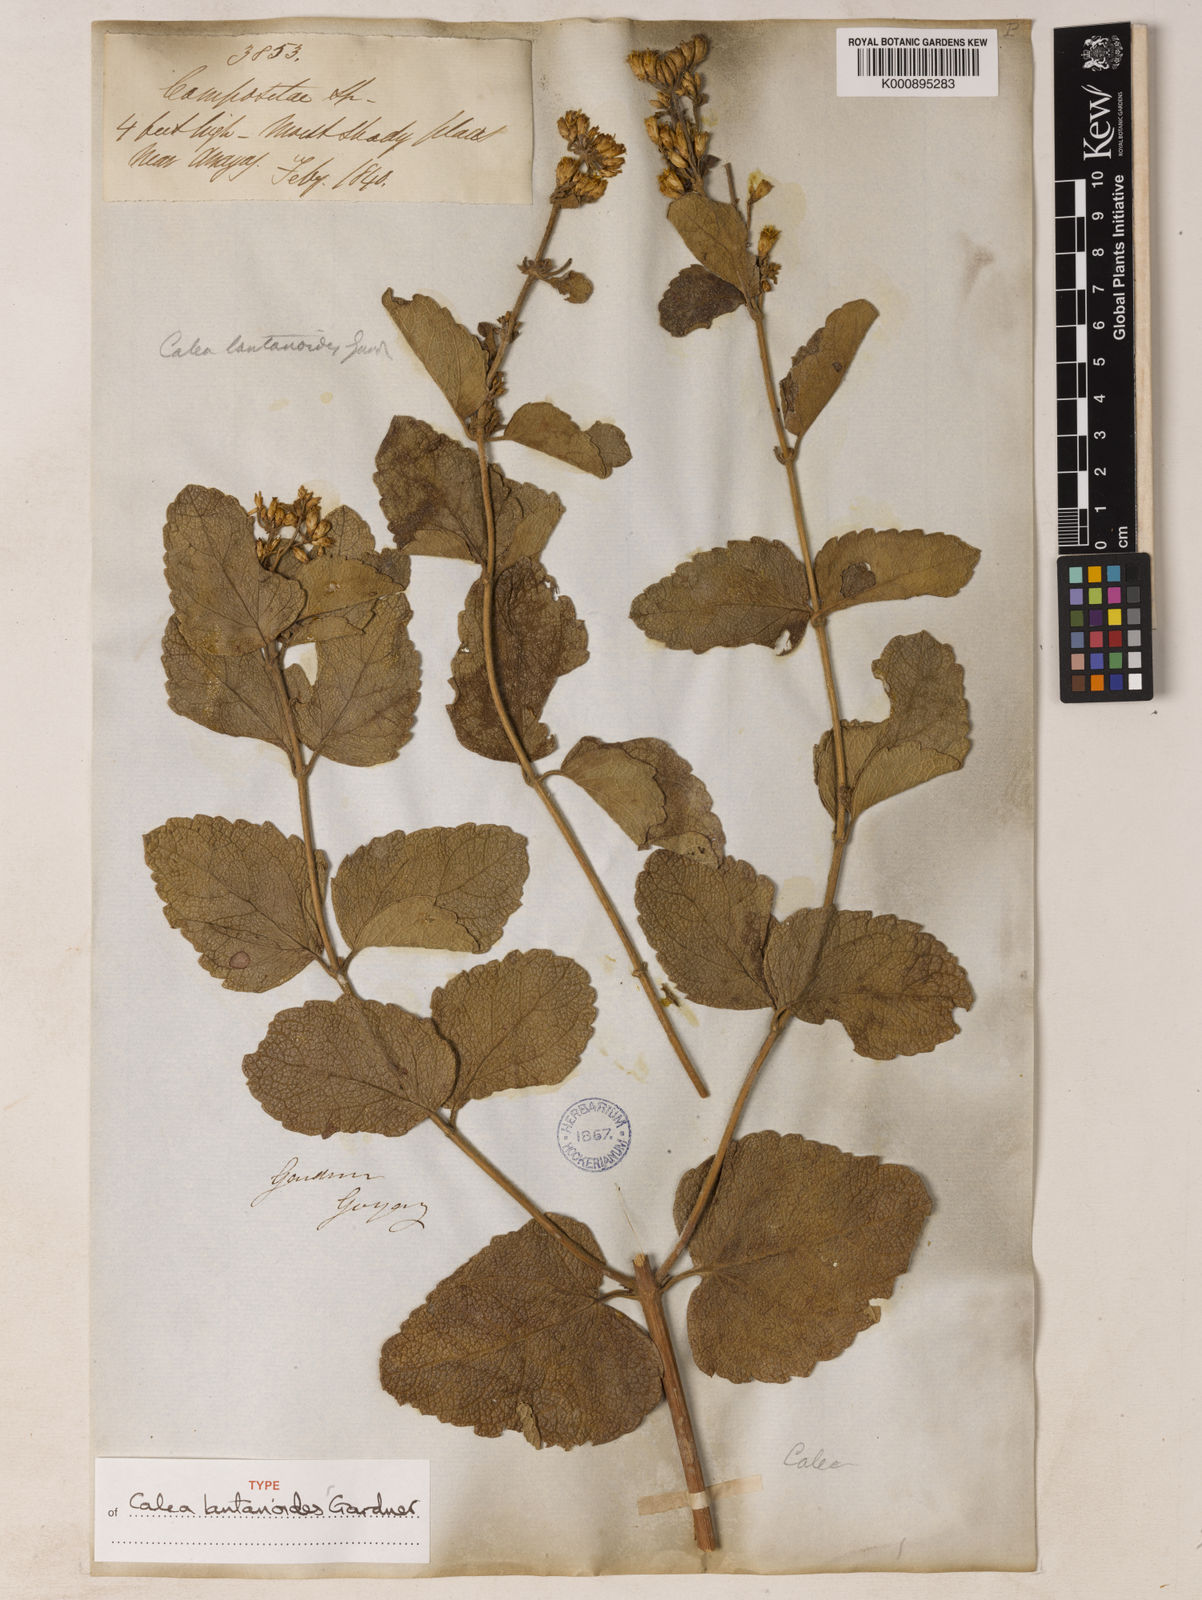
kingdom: Plantae
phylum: Tracheophyta
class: Magnoliopsida
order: Asterales
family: Asteraceae
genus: Calea
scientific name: Calea lantanoides
